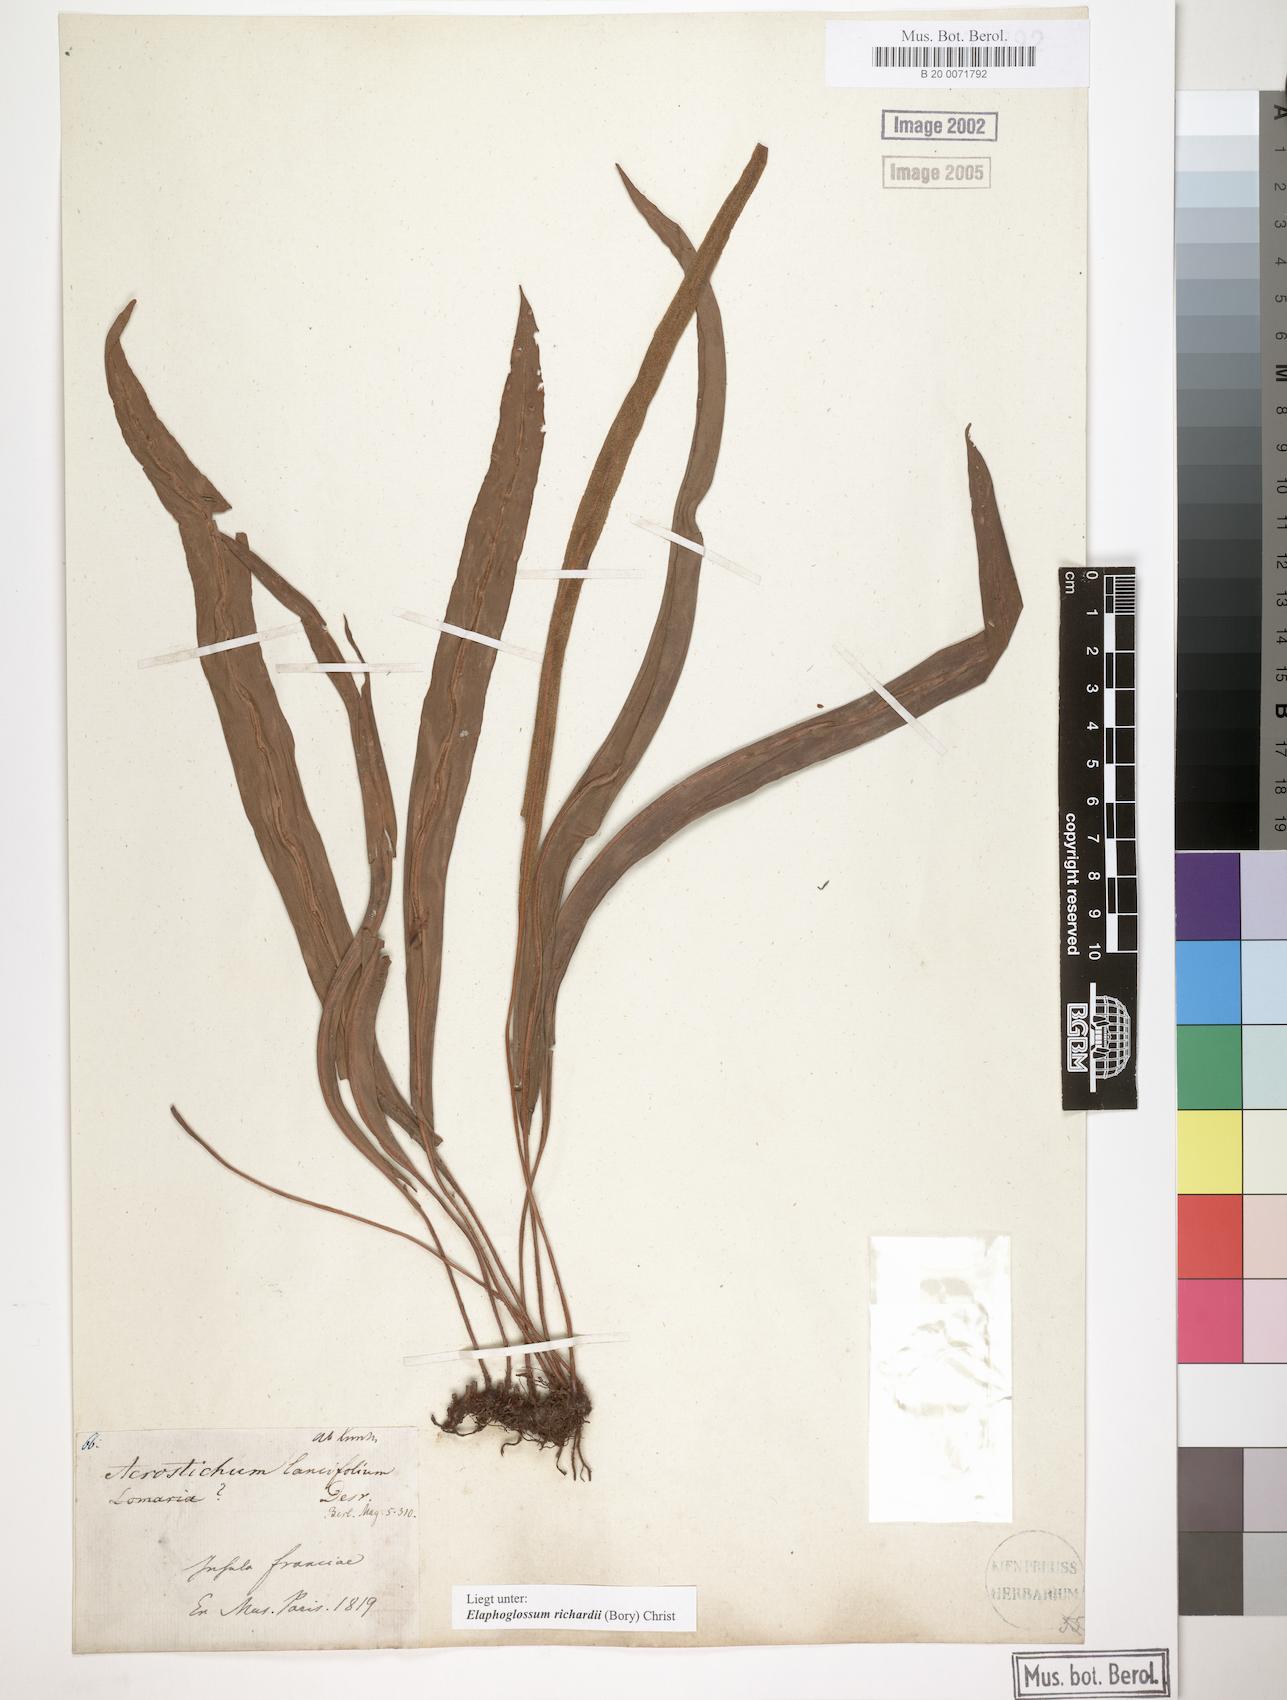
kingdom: Plantae
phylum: Tracheophyta
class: Polypodiopsida
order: Polypodiales
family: Dryopteridaceae
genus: Elaphoglossum
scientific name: Elaphoglossum richardii
